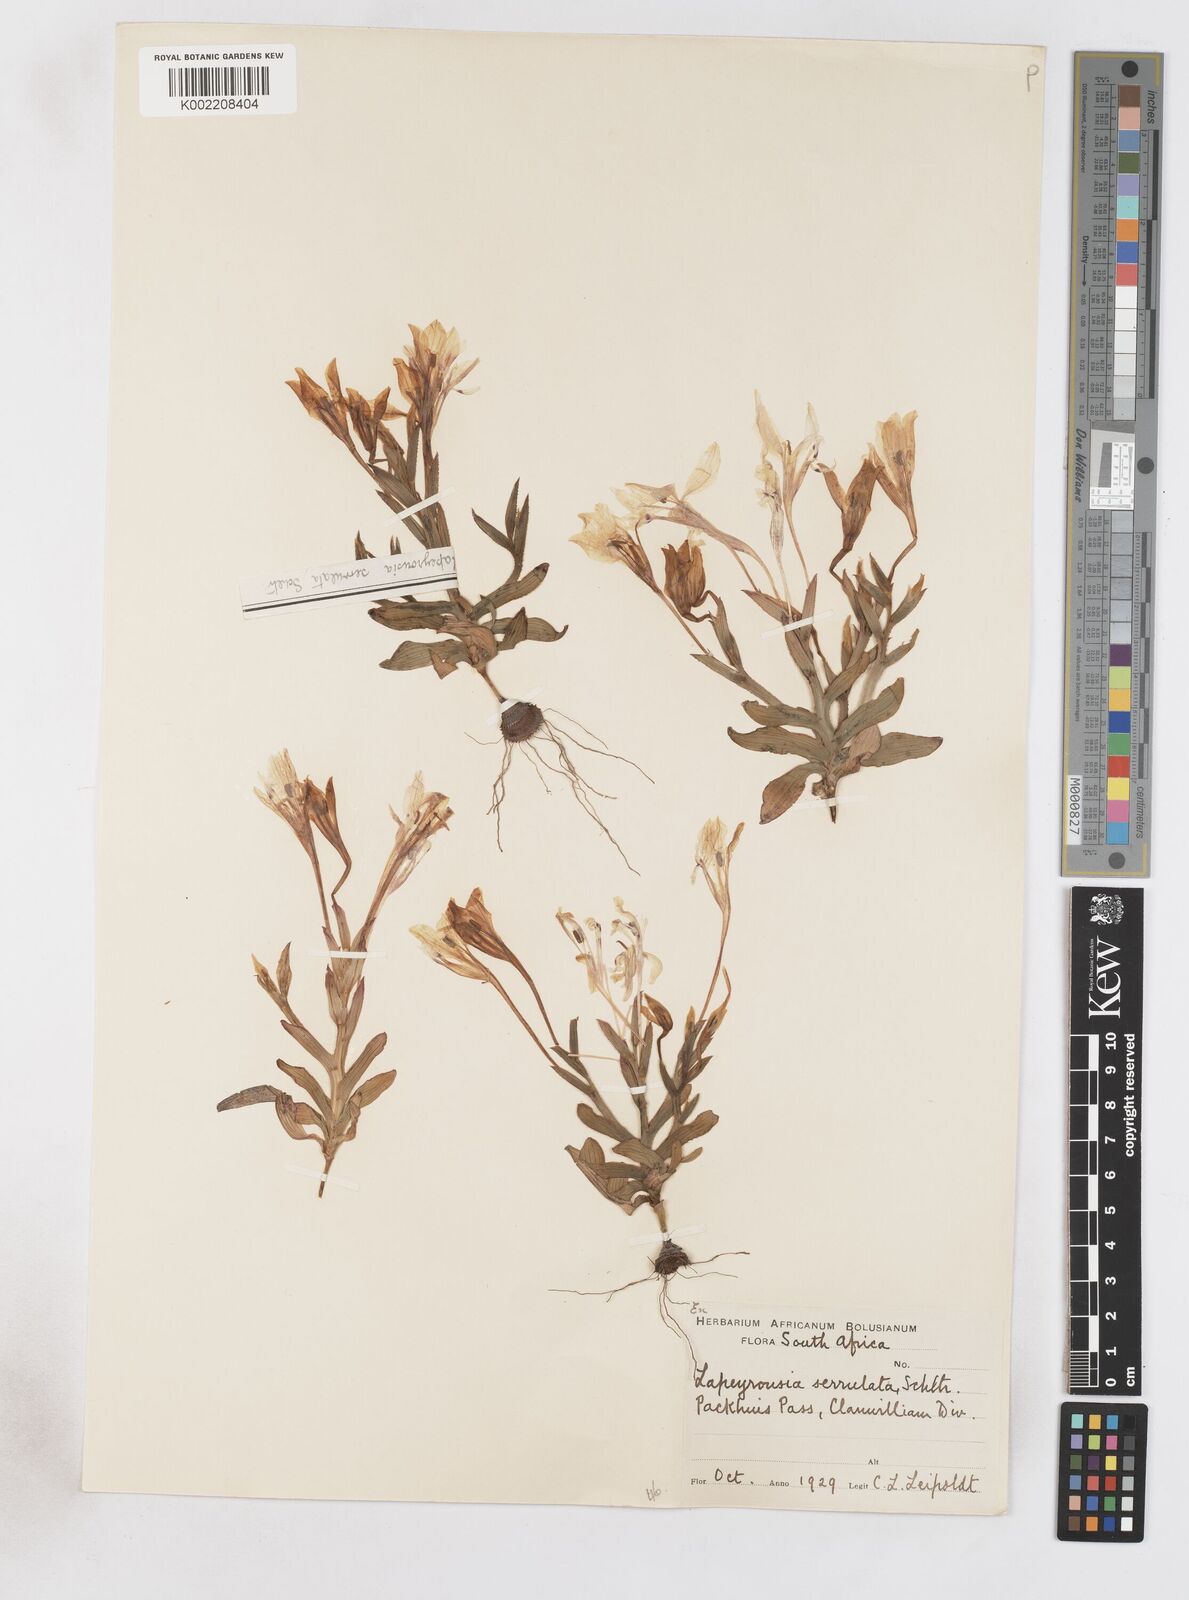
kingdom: Plantae
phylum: Tracheophyta
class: Liliopsida
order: Asparagales
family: Iridaceae
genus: Lapeirousia
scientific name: Lapeirousia fabricii
